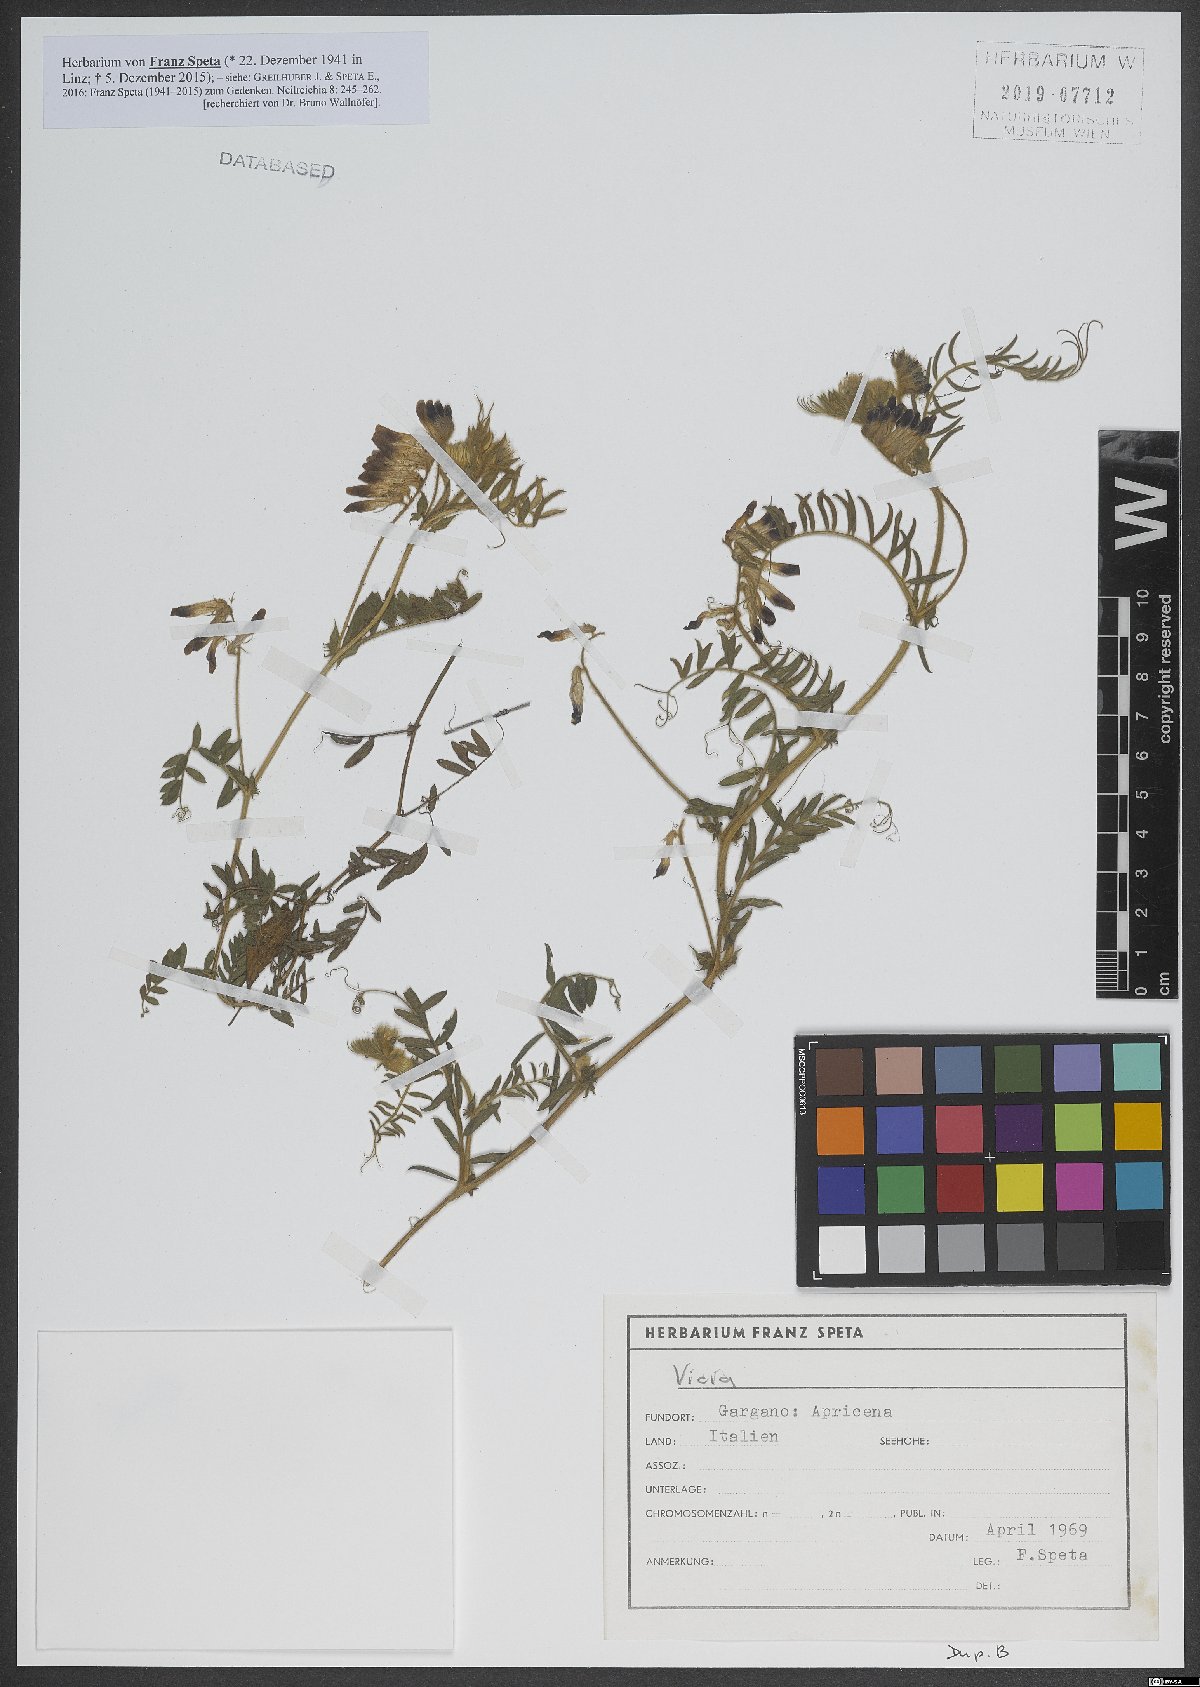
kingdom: Plantae
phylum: Tracheophyta
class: Magnoliopsida
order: Fabales
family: Fabaceae
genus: Vicia
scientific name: Vicia
